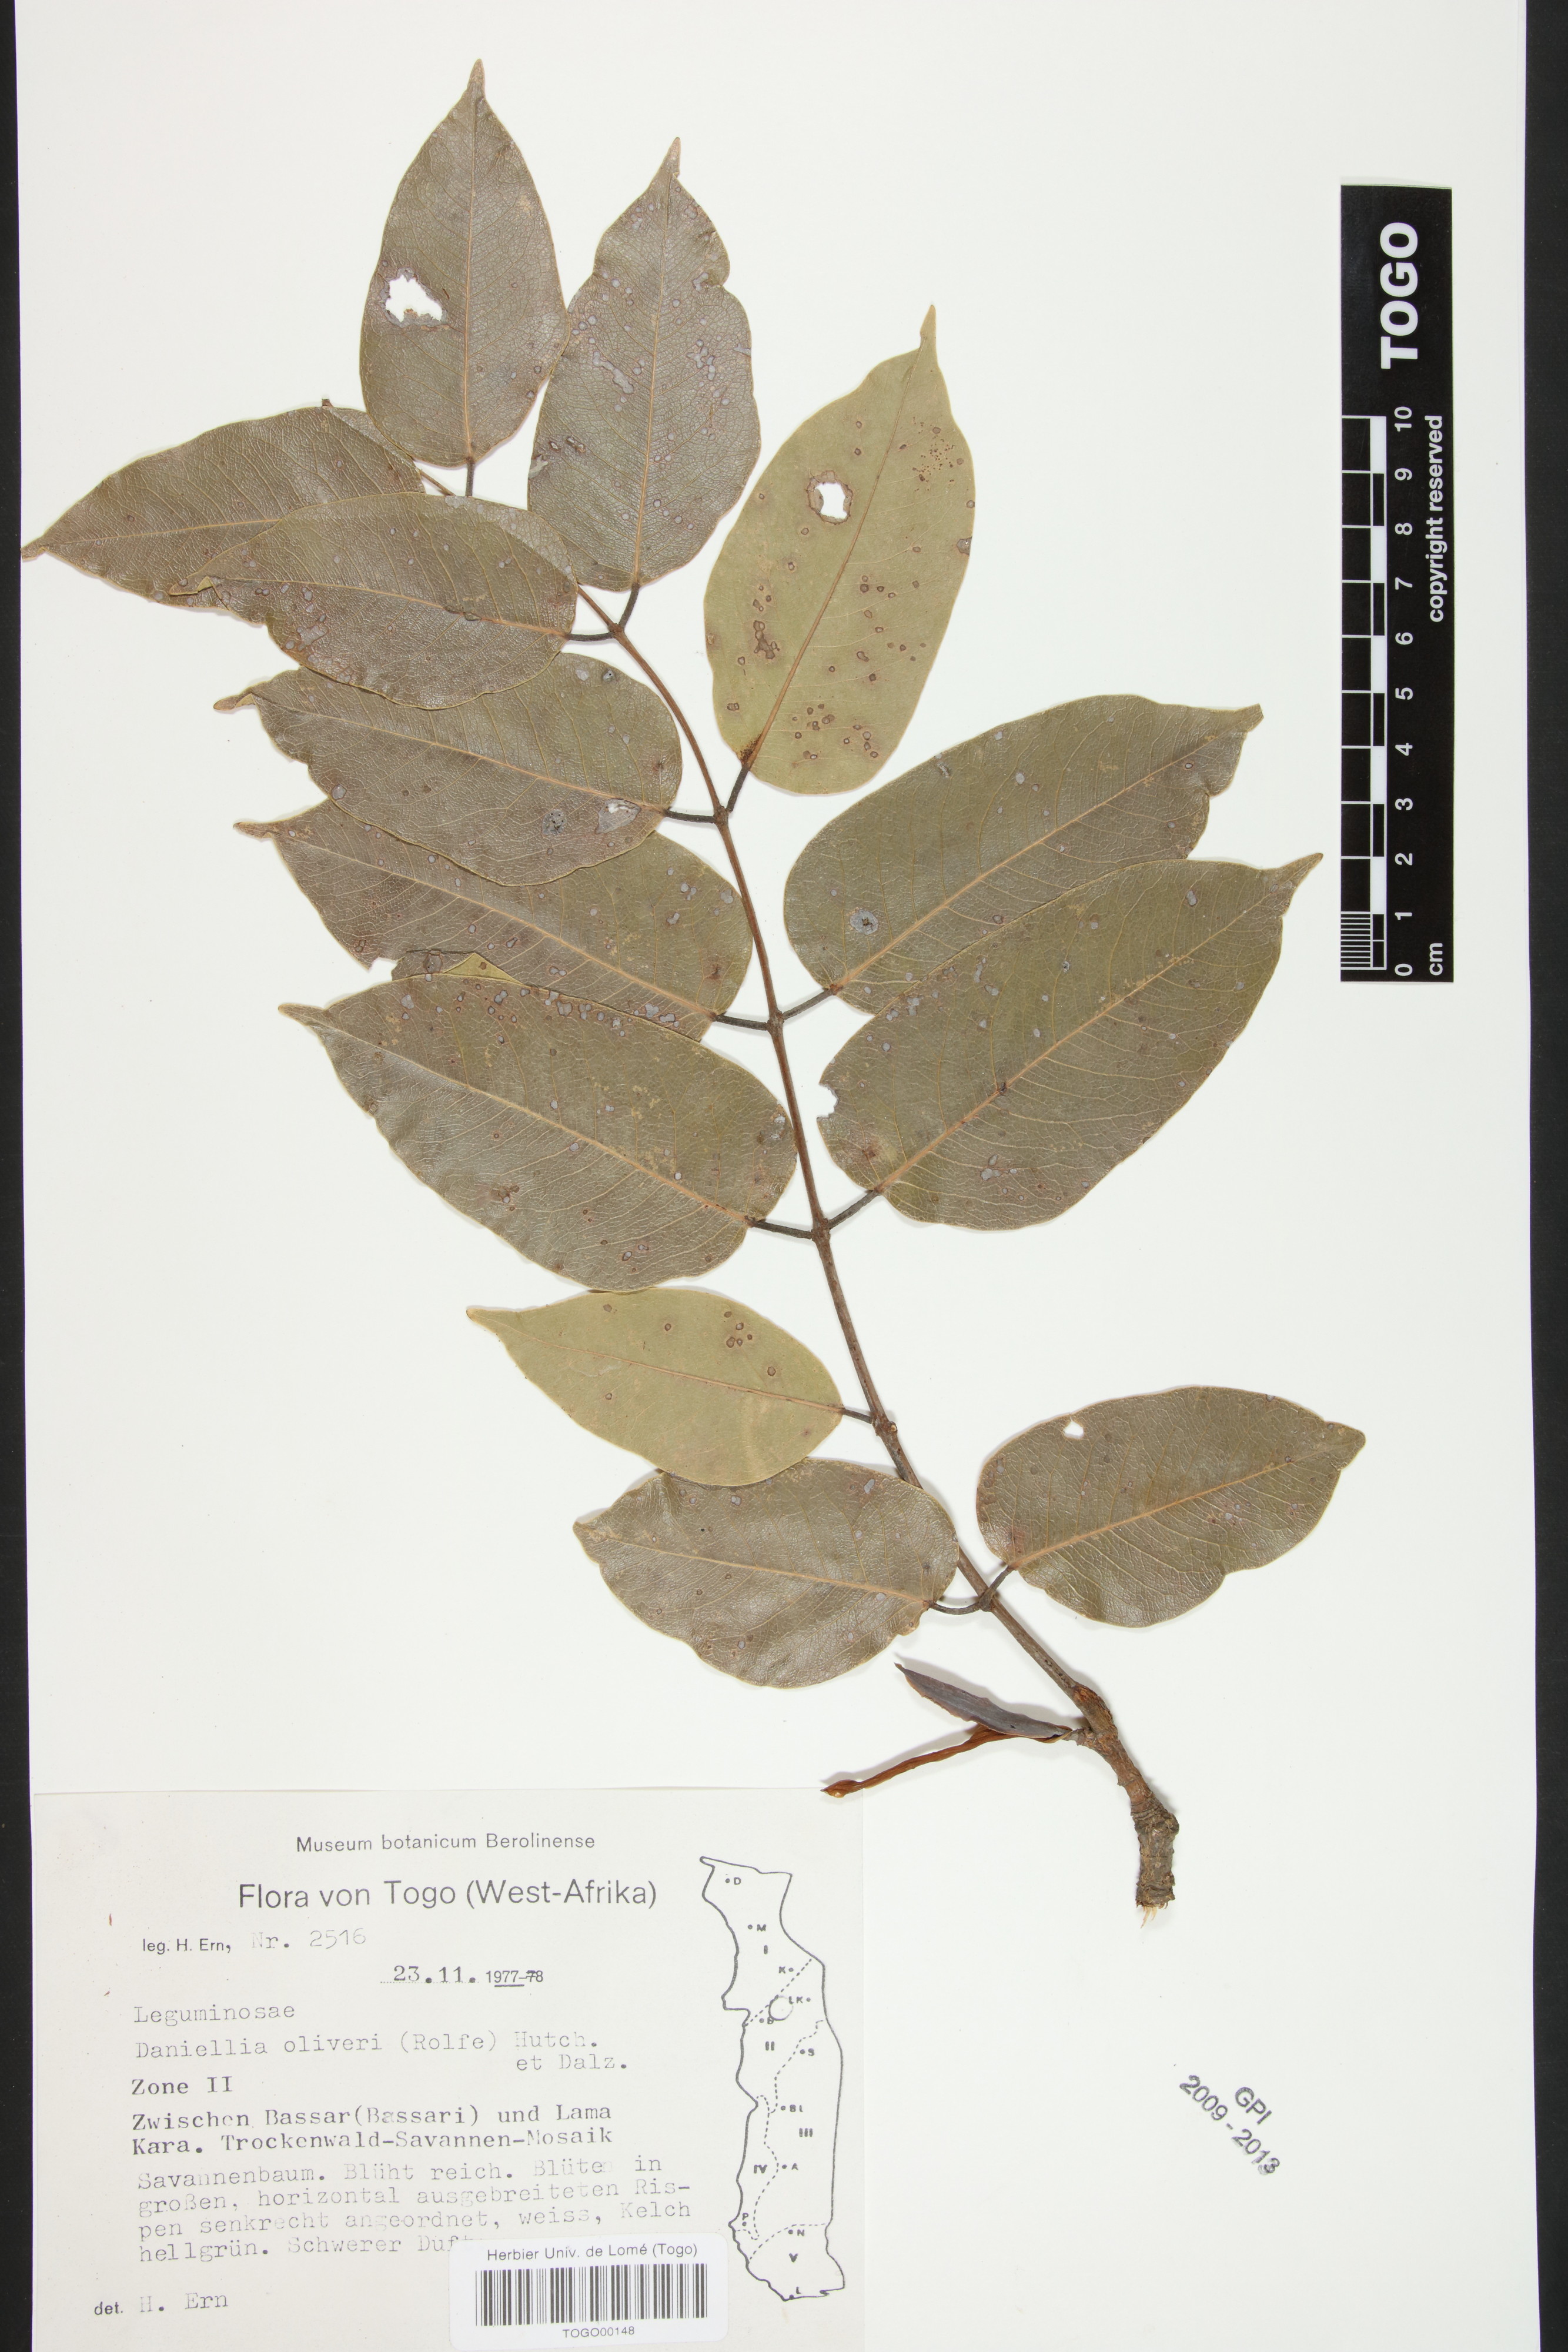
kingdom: Plantae
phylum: Tracheophyta
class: Magnoliopsida
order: Fabales
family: Fabaceae
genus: Daniellia
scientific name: Daniellia oliveri
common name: African copaiba balsamtree
